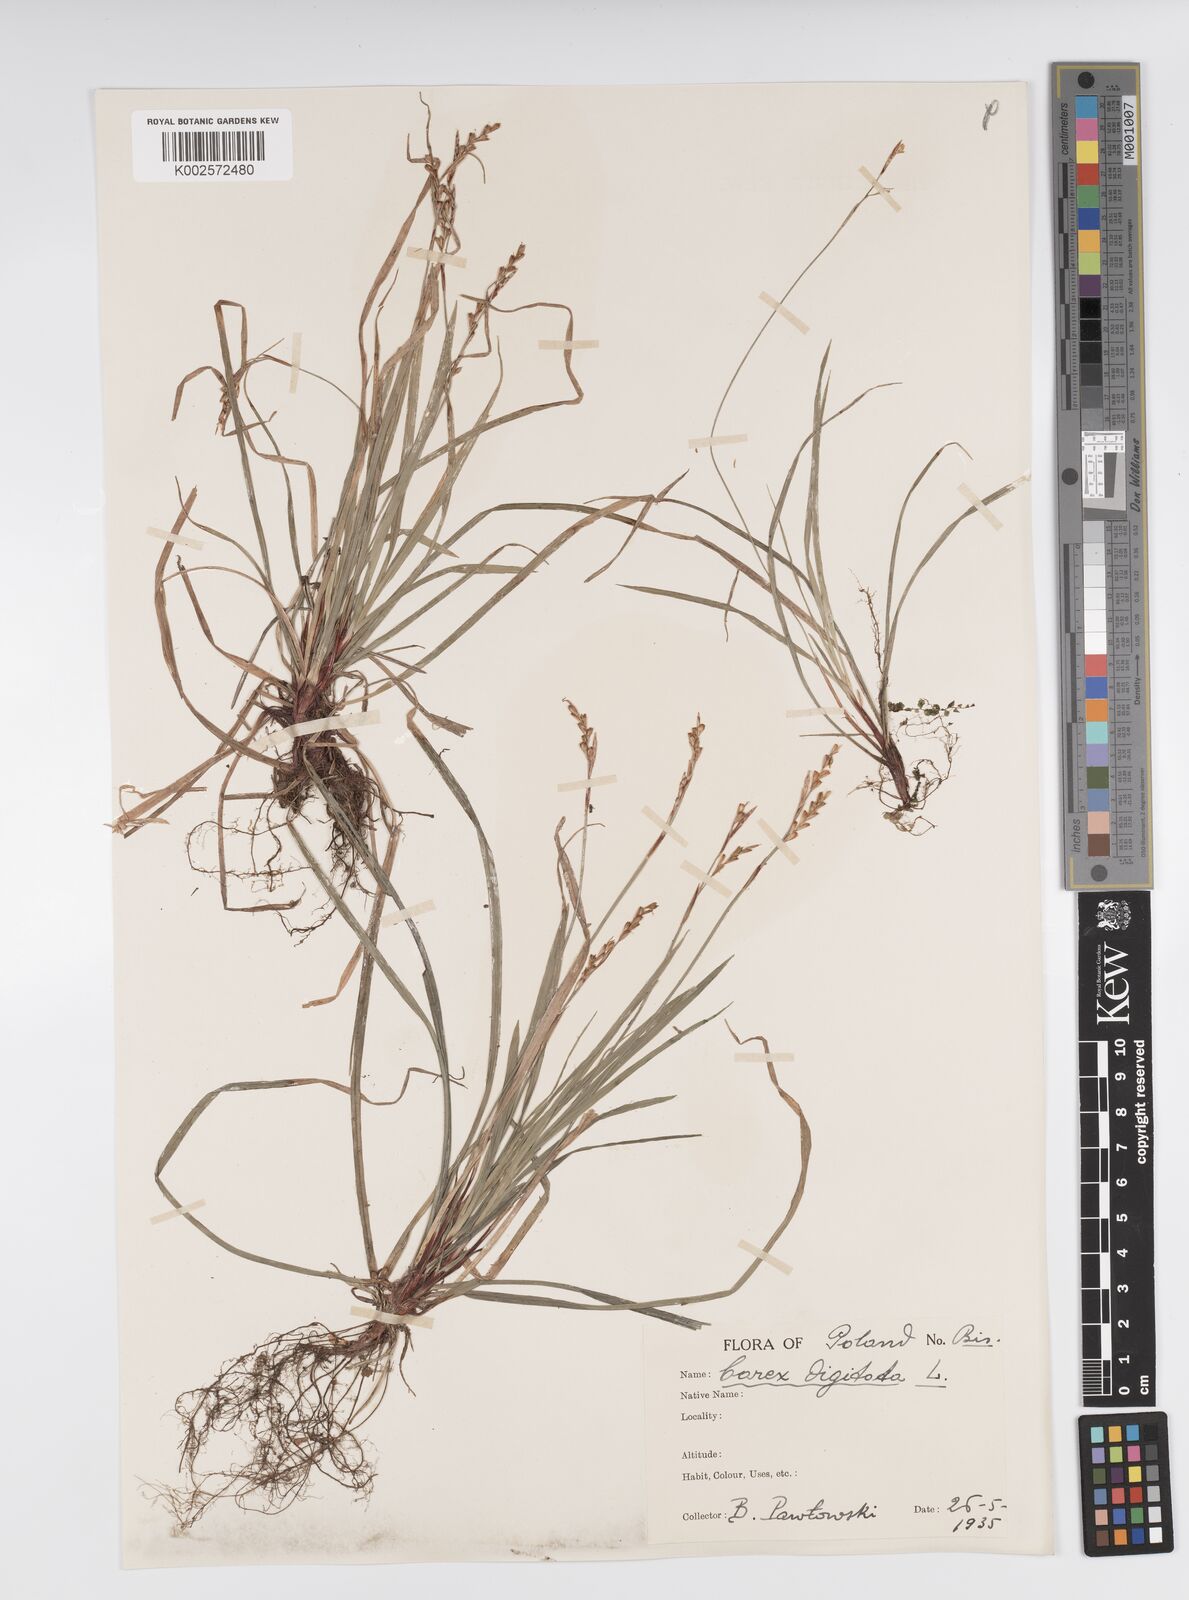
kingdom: Plantae
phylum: Tracheophyta
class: Liliopsida
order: Poales
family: Cyperaceae
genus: Carex
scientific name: Carex digitata
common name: Fingered sedge
